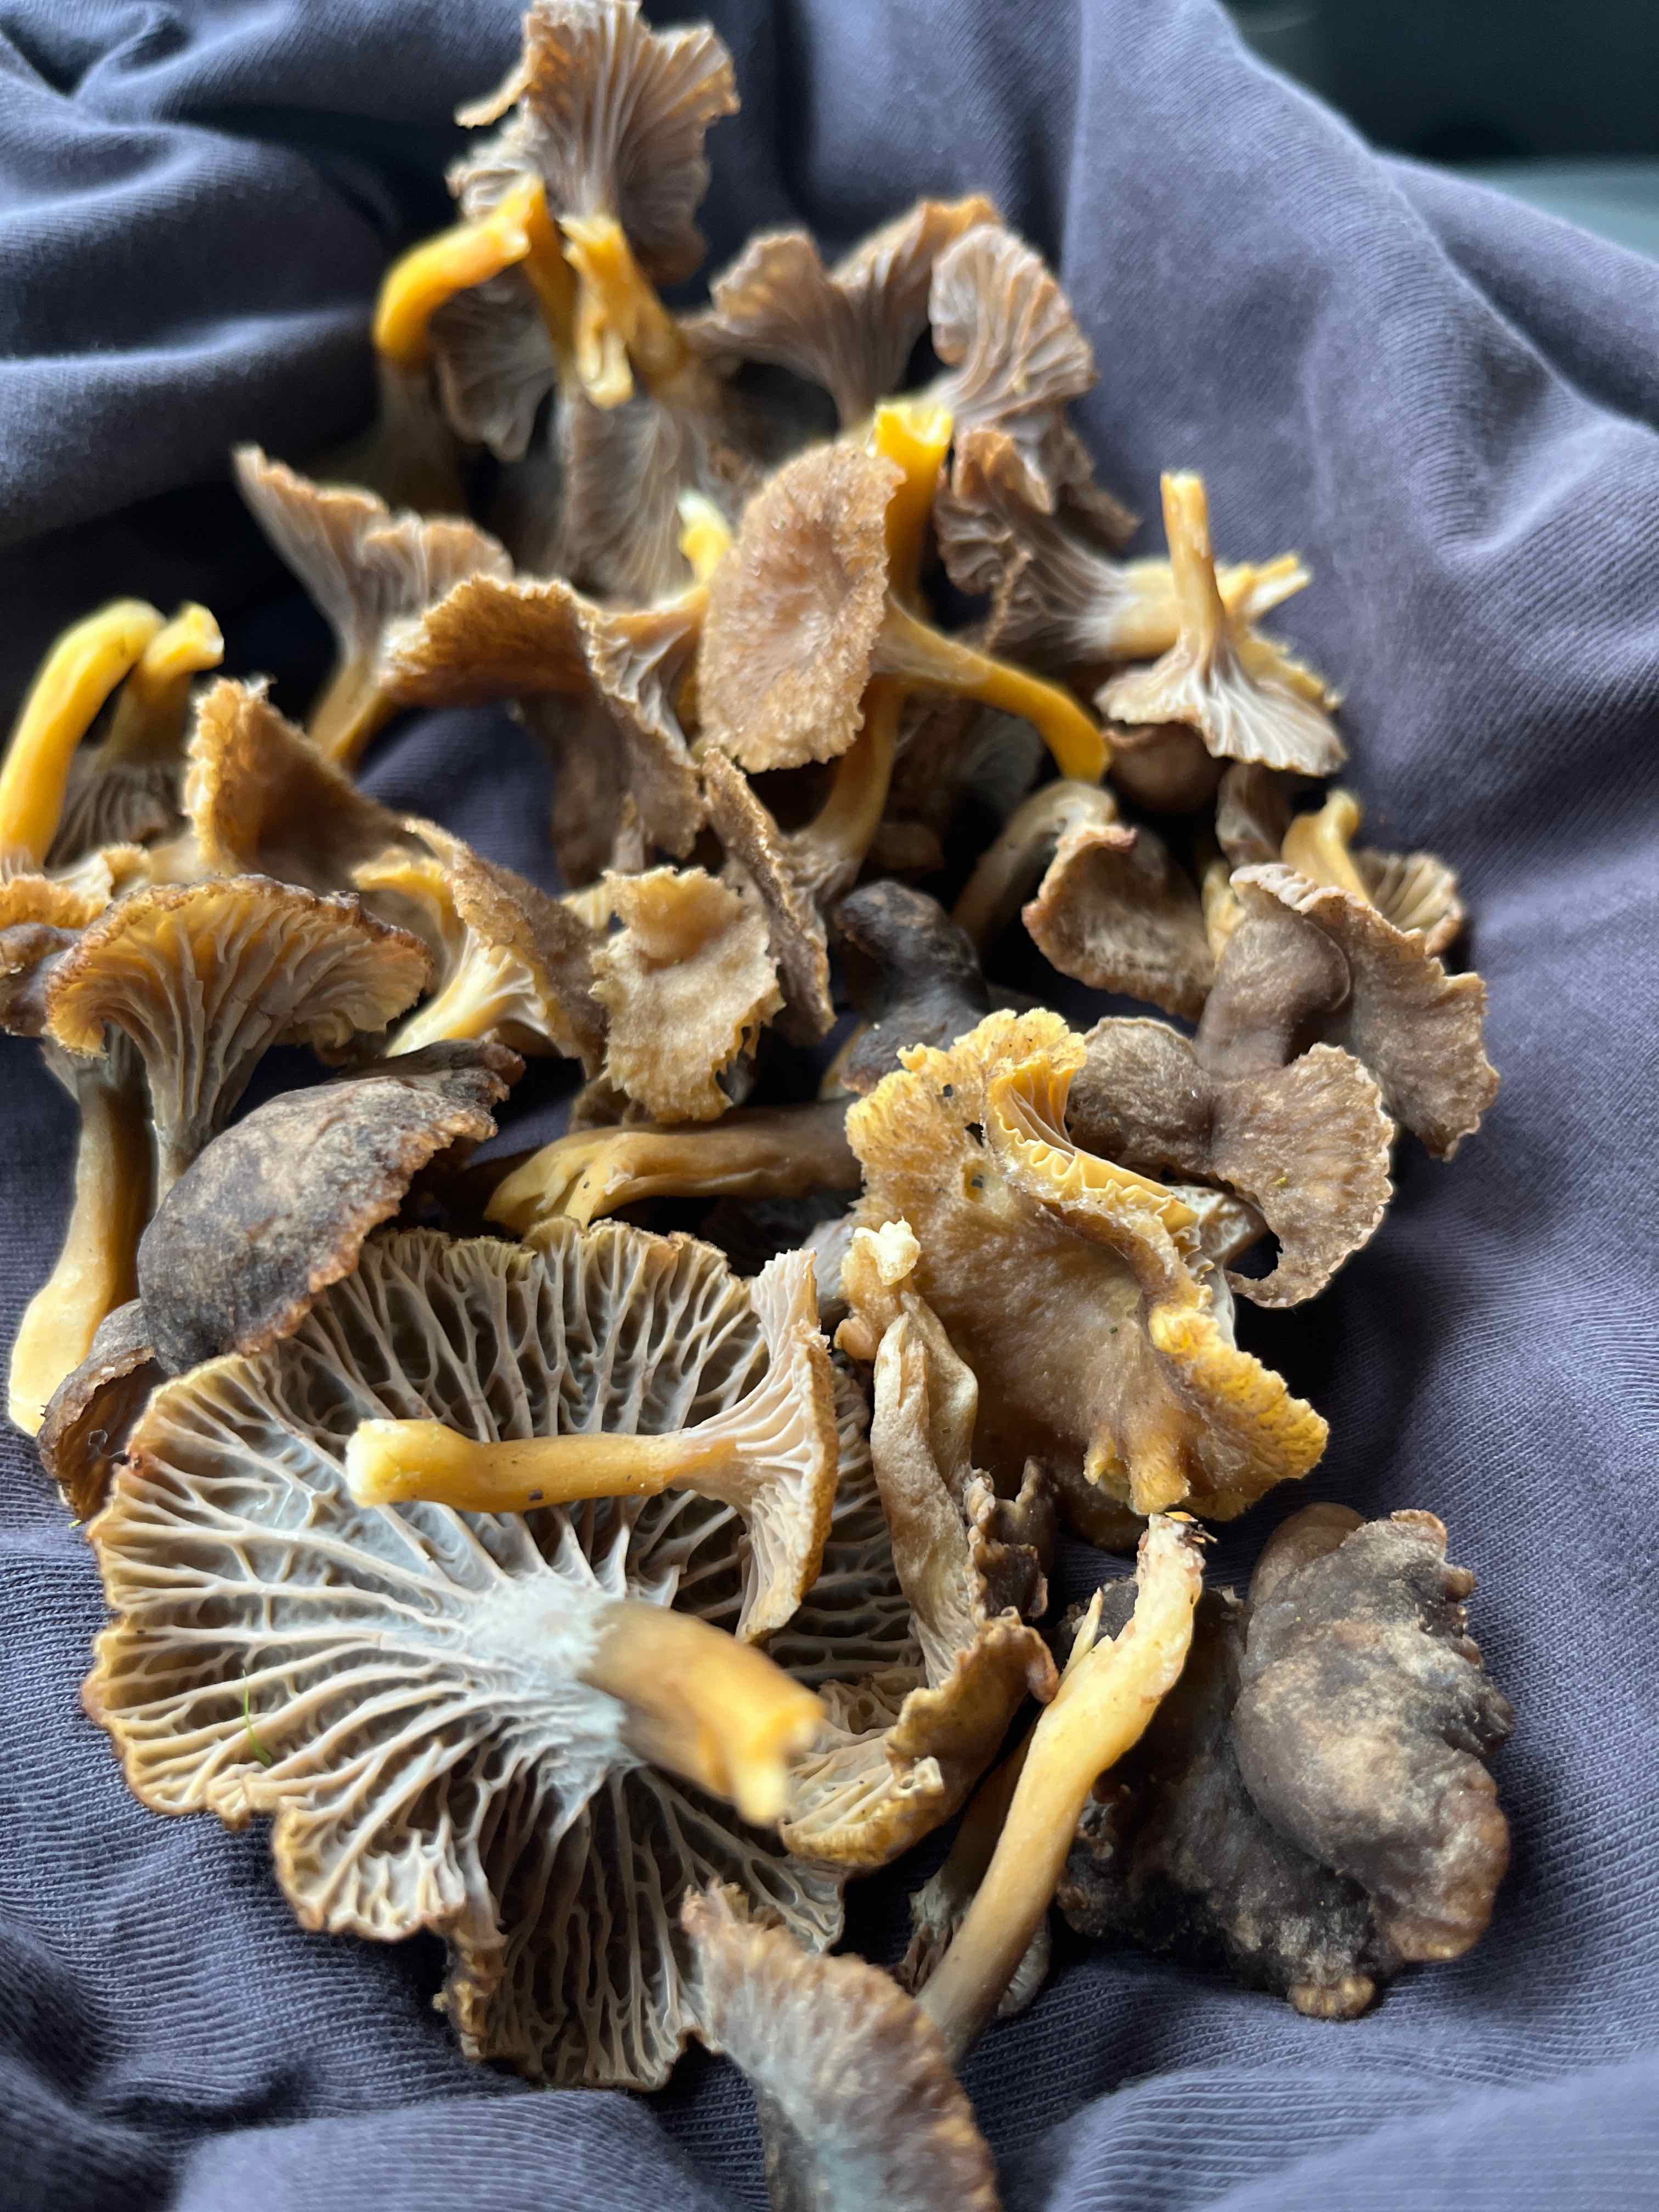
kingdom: Fungi
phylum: Basidiomycota
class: Agaricomycetes
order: Cantharellales
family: Hydnaceae
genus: Craterellus
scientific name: Craterellus tubaeformis
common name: tragt-kantarel
